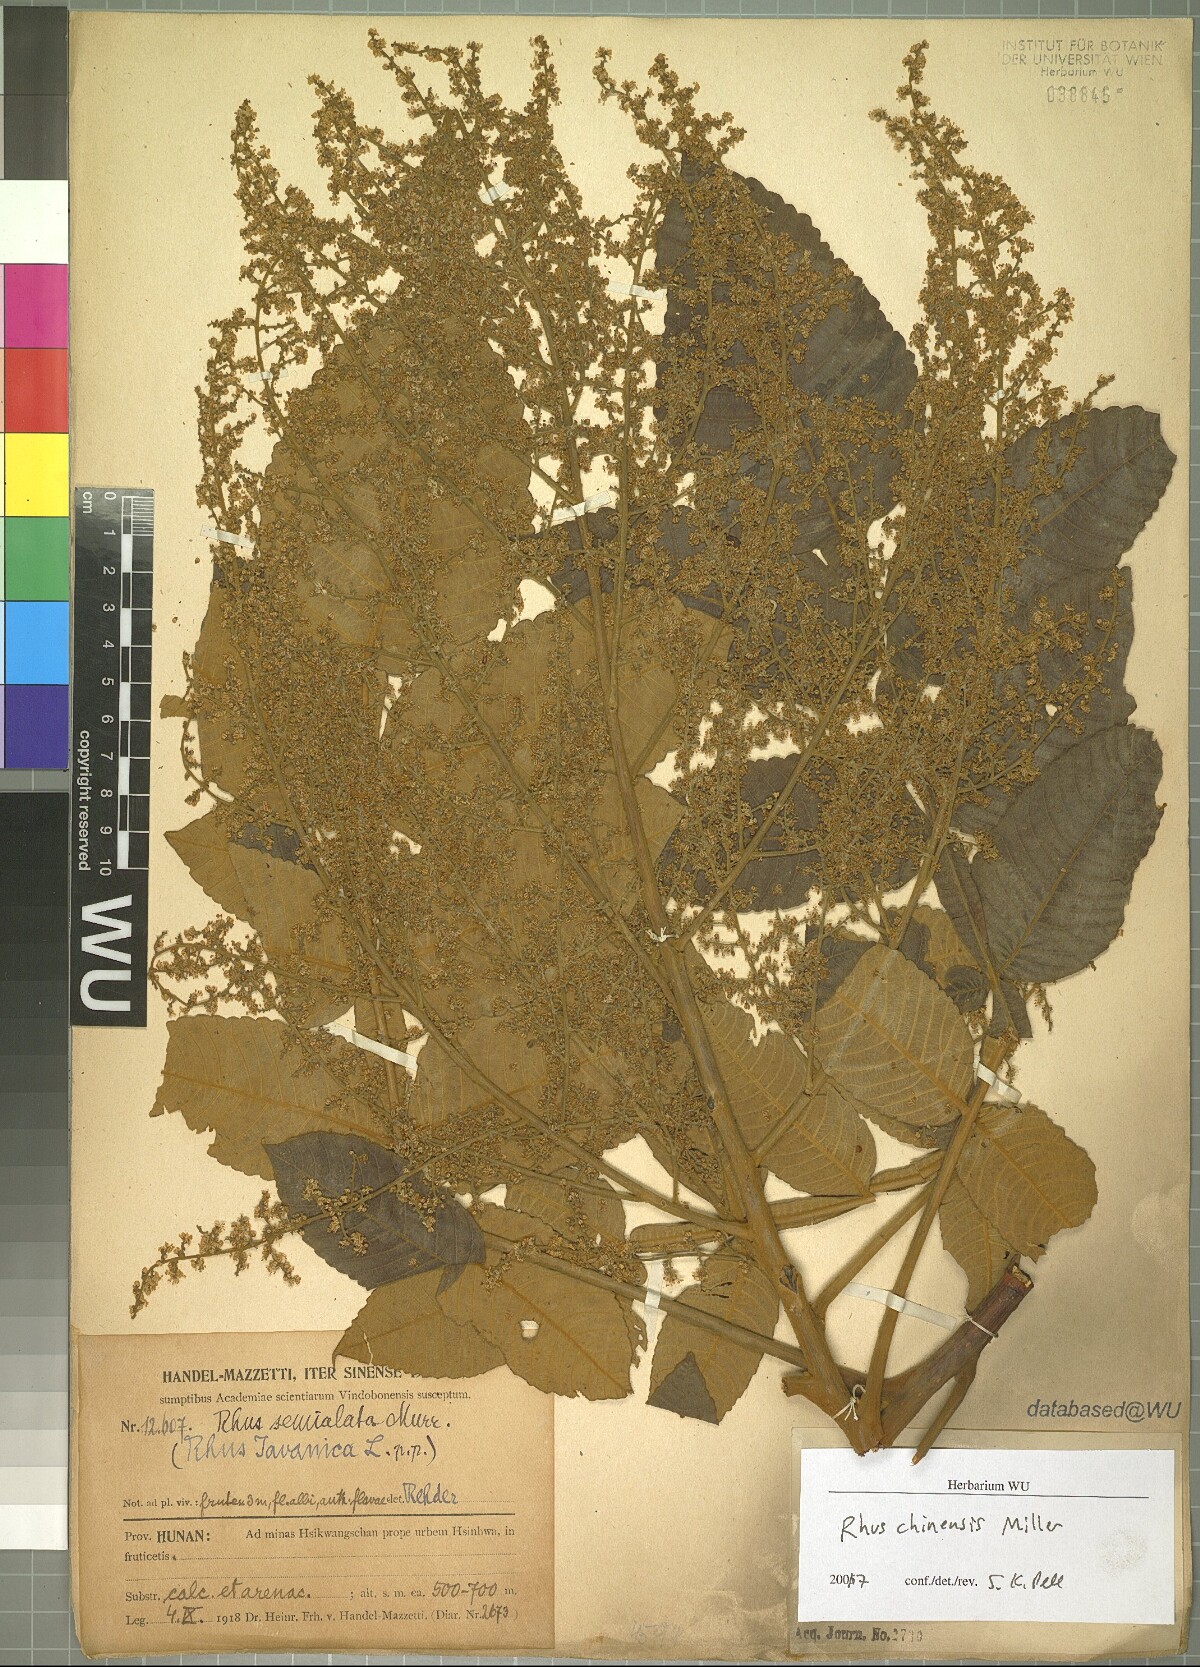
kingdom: Plantae
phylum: Tracheophyta
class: Magnoliopsida
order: Sapindales
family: Anacardiaceae
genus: Rhus
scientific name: Rhus chinensis
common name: Chinese gall
